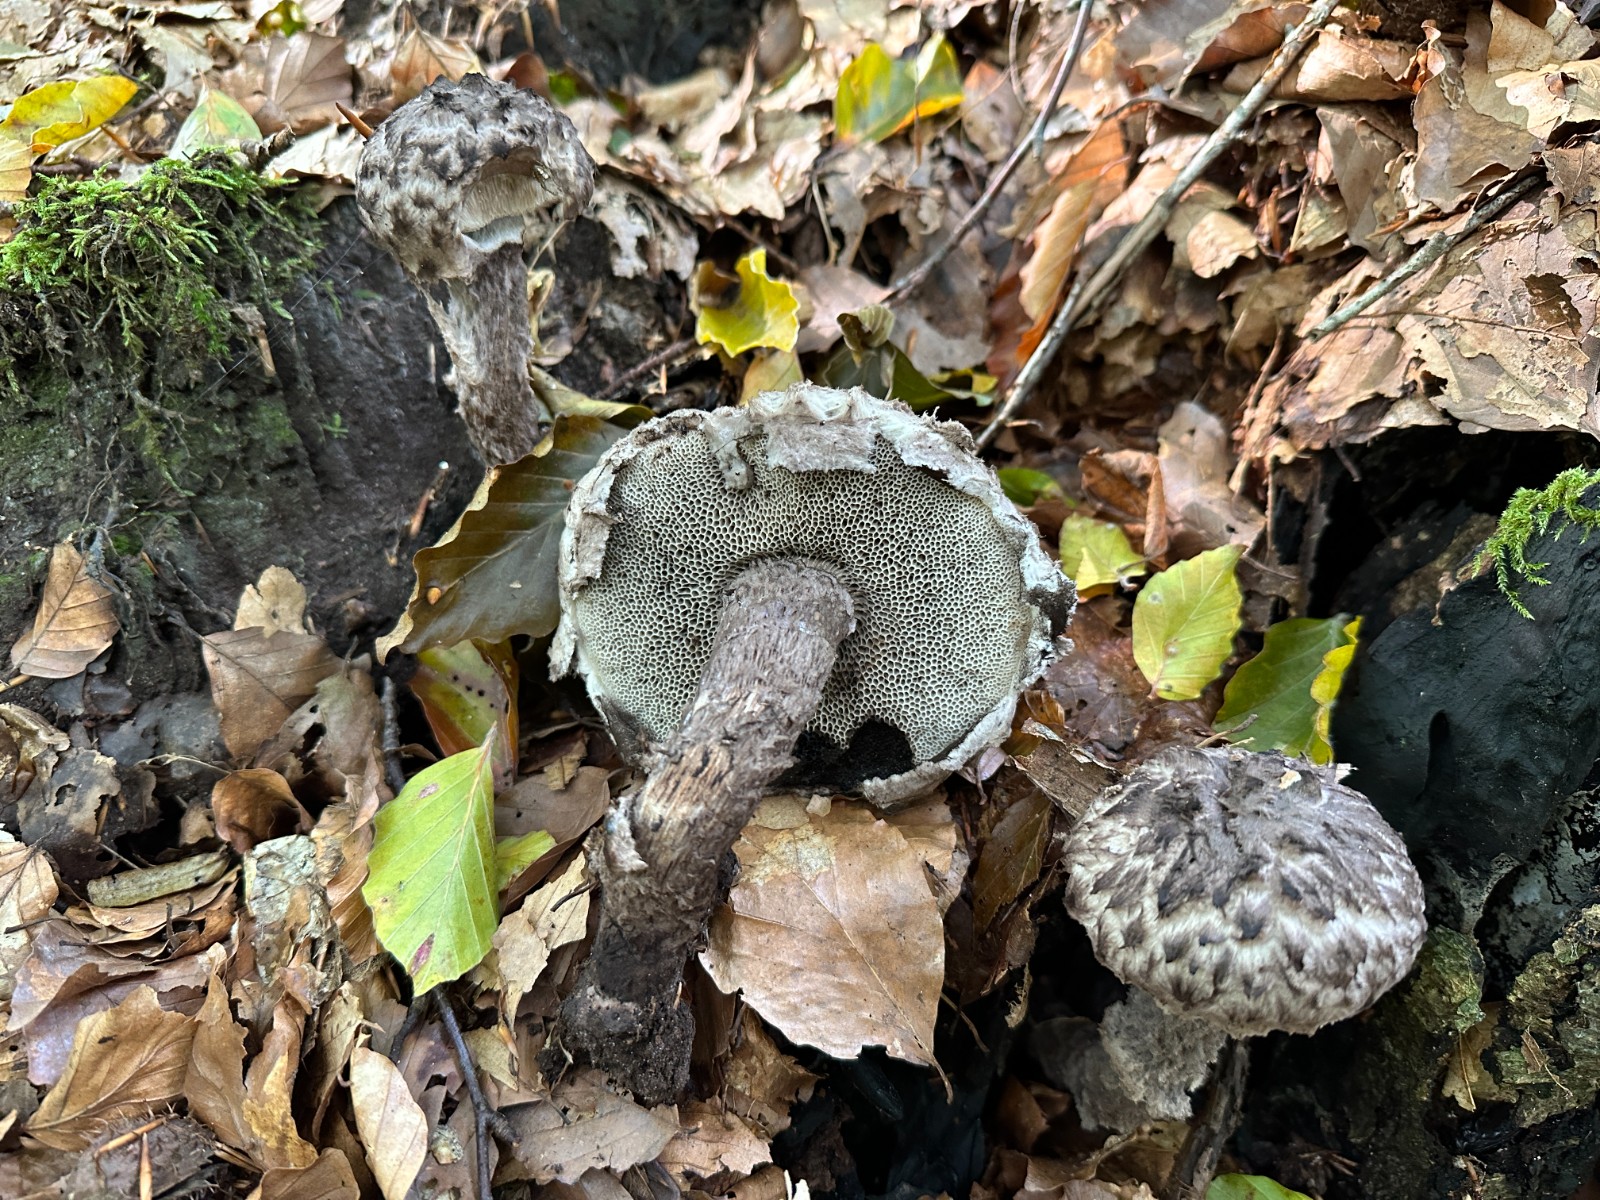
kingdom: Fungi
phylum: Basidiomycota
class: Agaricomycetes
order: Boletales
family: Boletaceae
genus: Strobilomyces
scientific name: Strobilomyces strobilaceus
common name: koglerørhat
